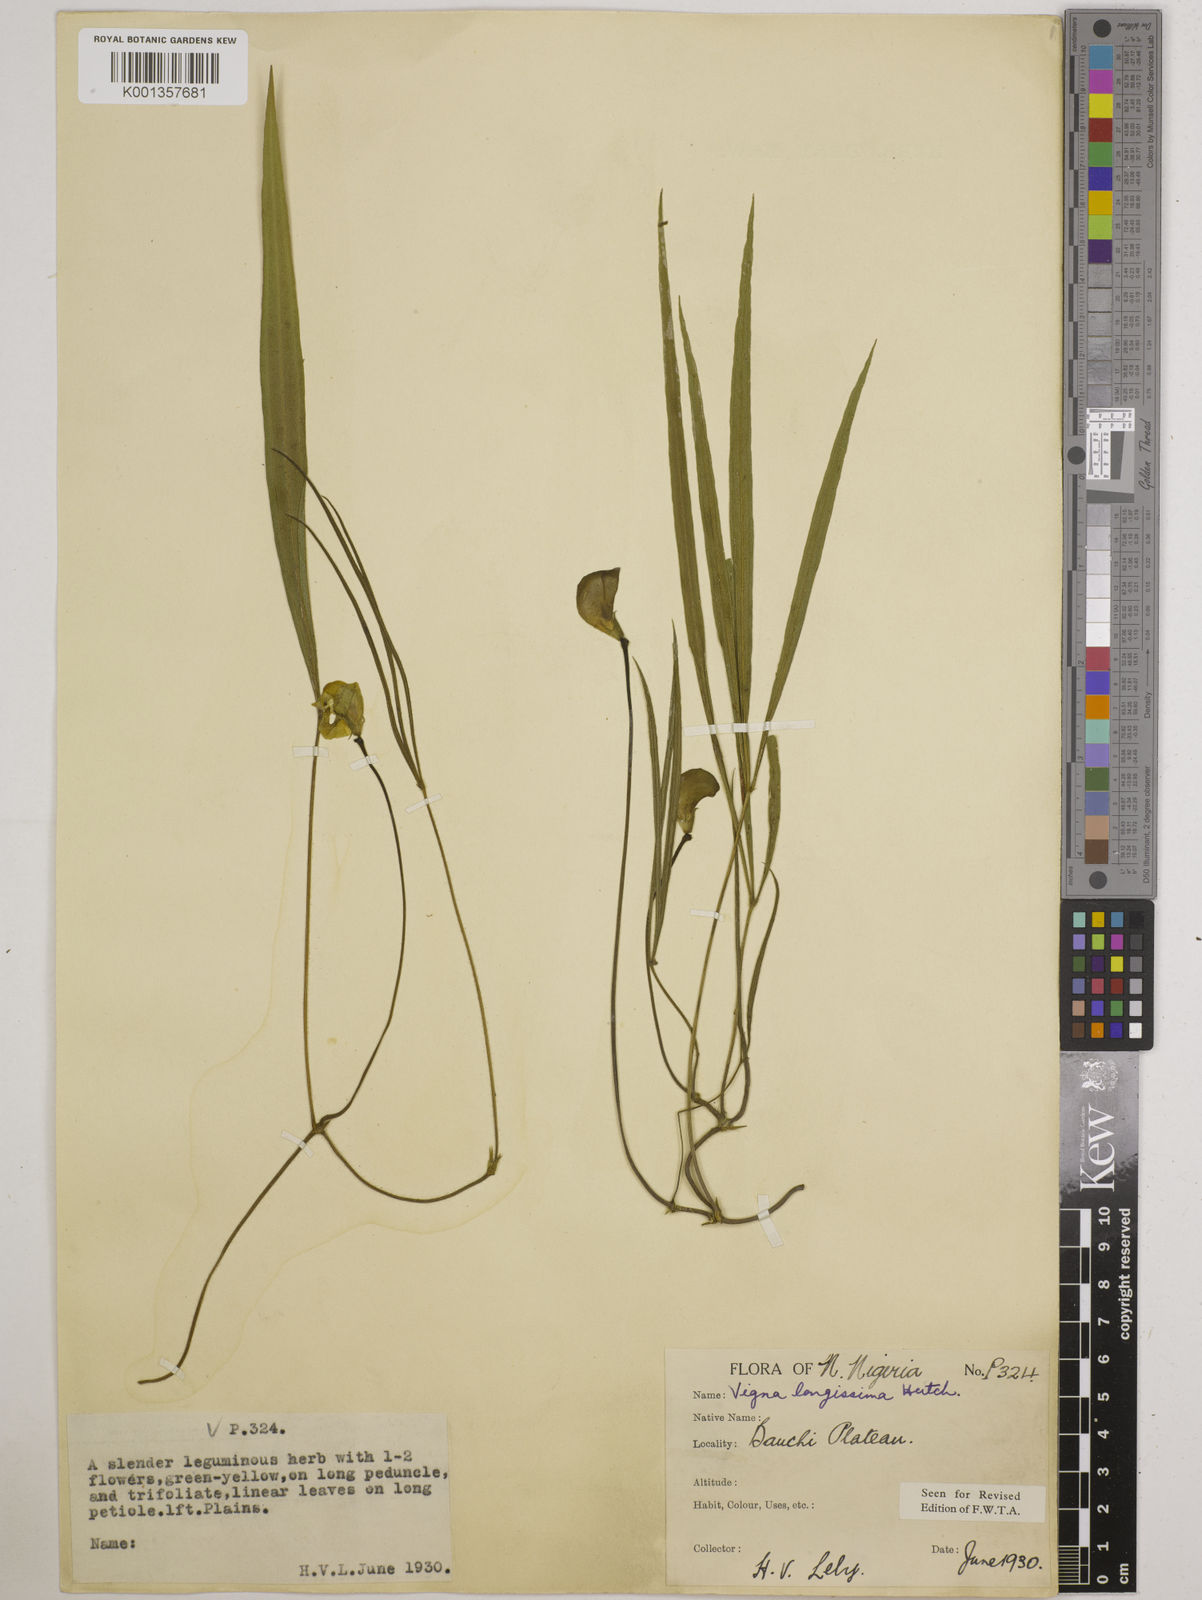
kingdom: Plantae
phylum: Tracheophyta
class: Magnoliopsida
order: Fabales
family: Fabaceae
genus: Vigna
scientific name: Vigna longissima
